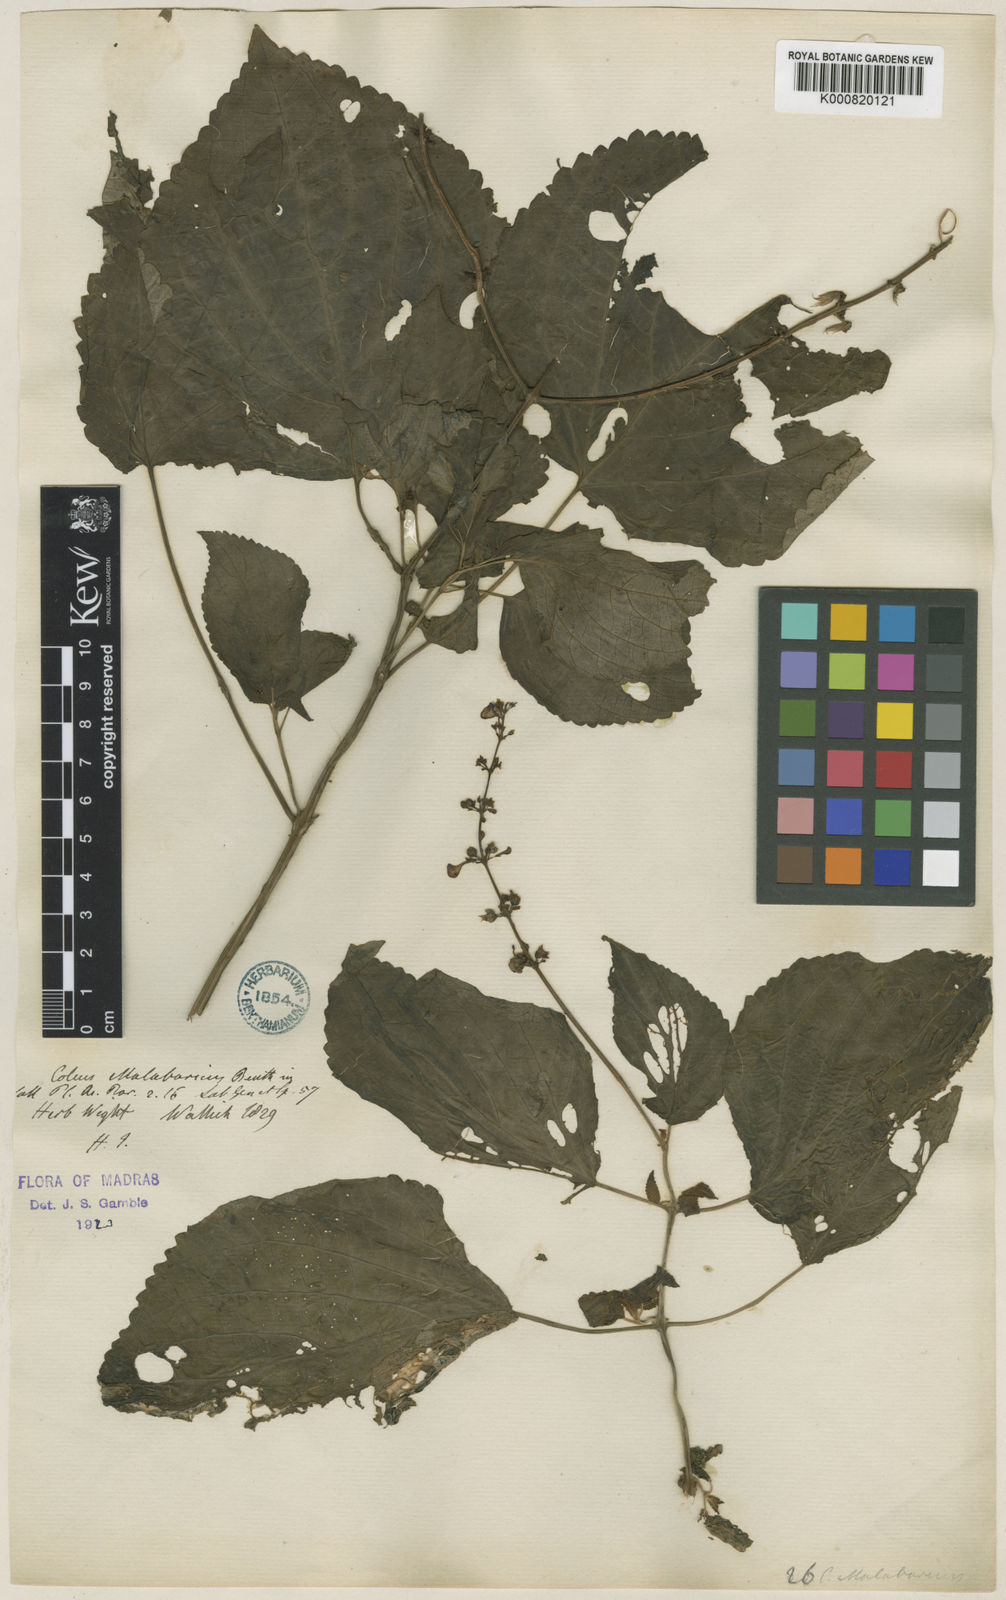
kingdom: Plantae
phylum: Tracheophyta
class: Magnoliopsida
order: Lamiales
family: Lamiaceae
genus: Coleus
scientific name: Coleus malabaricus
